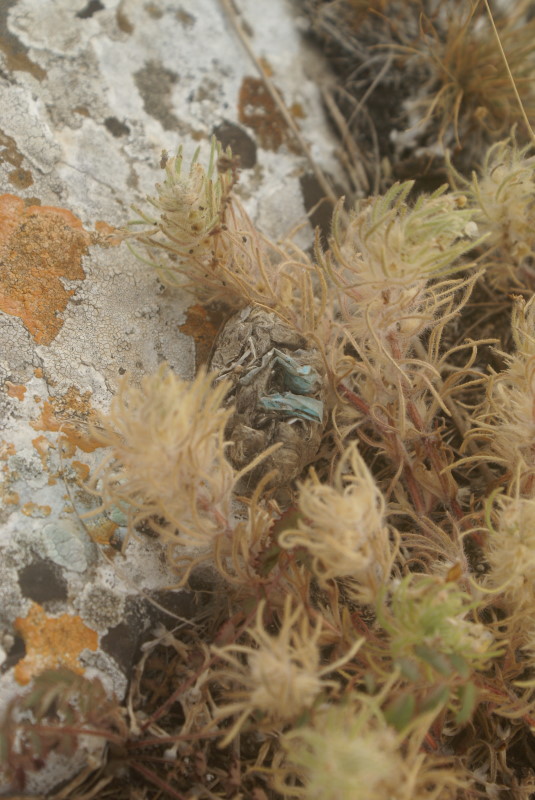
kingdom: Plantae
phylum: Tracheophyta
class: Magnoliopsida
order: Lamiales
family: Lamiaceae
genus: Ajuga
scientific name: Ajuga chamaepitys
